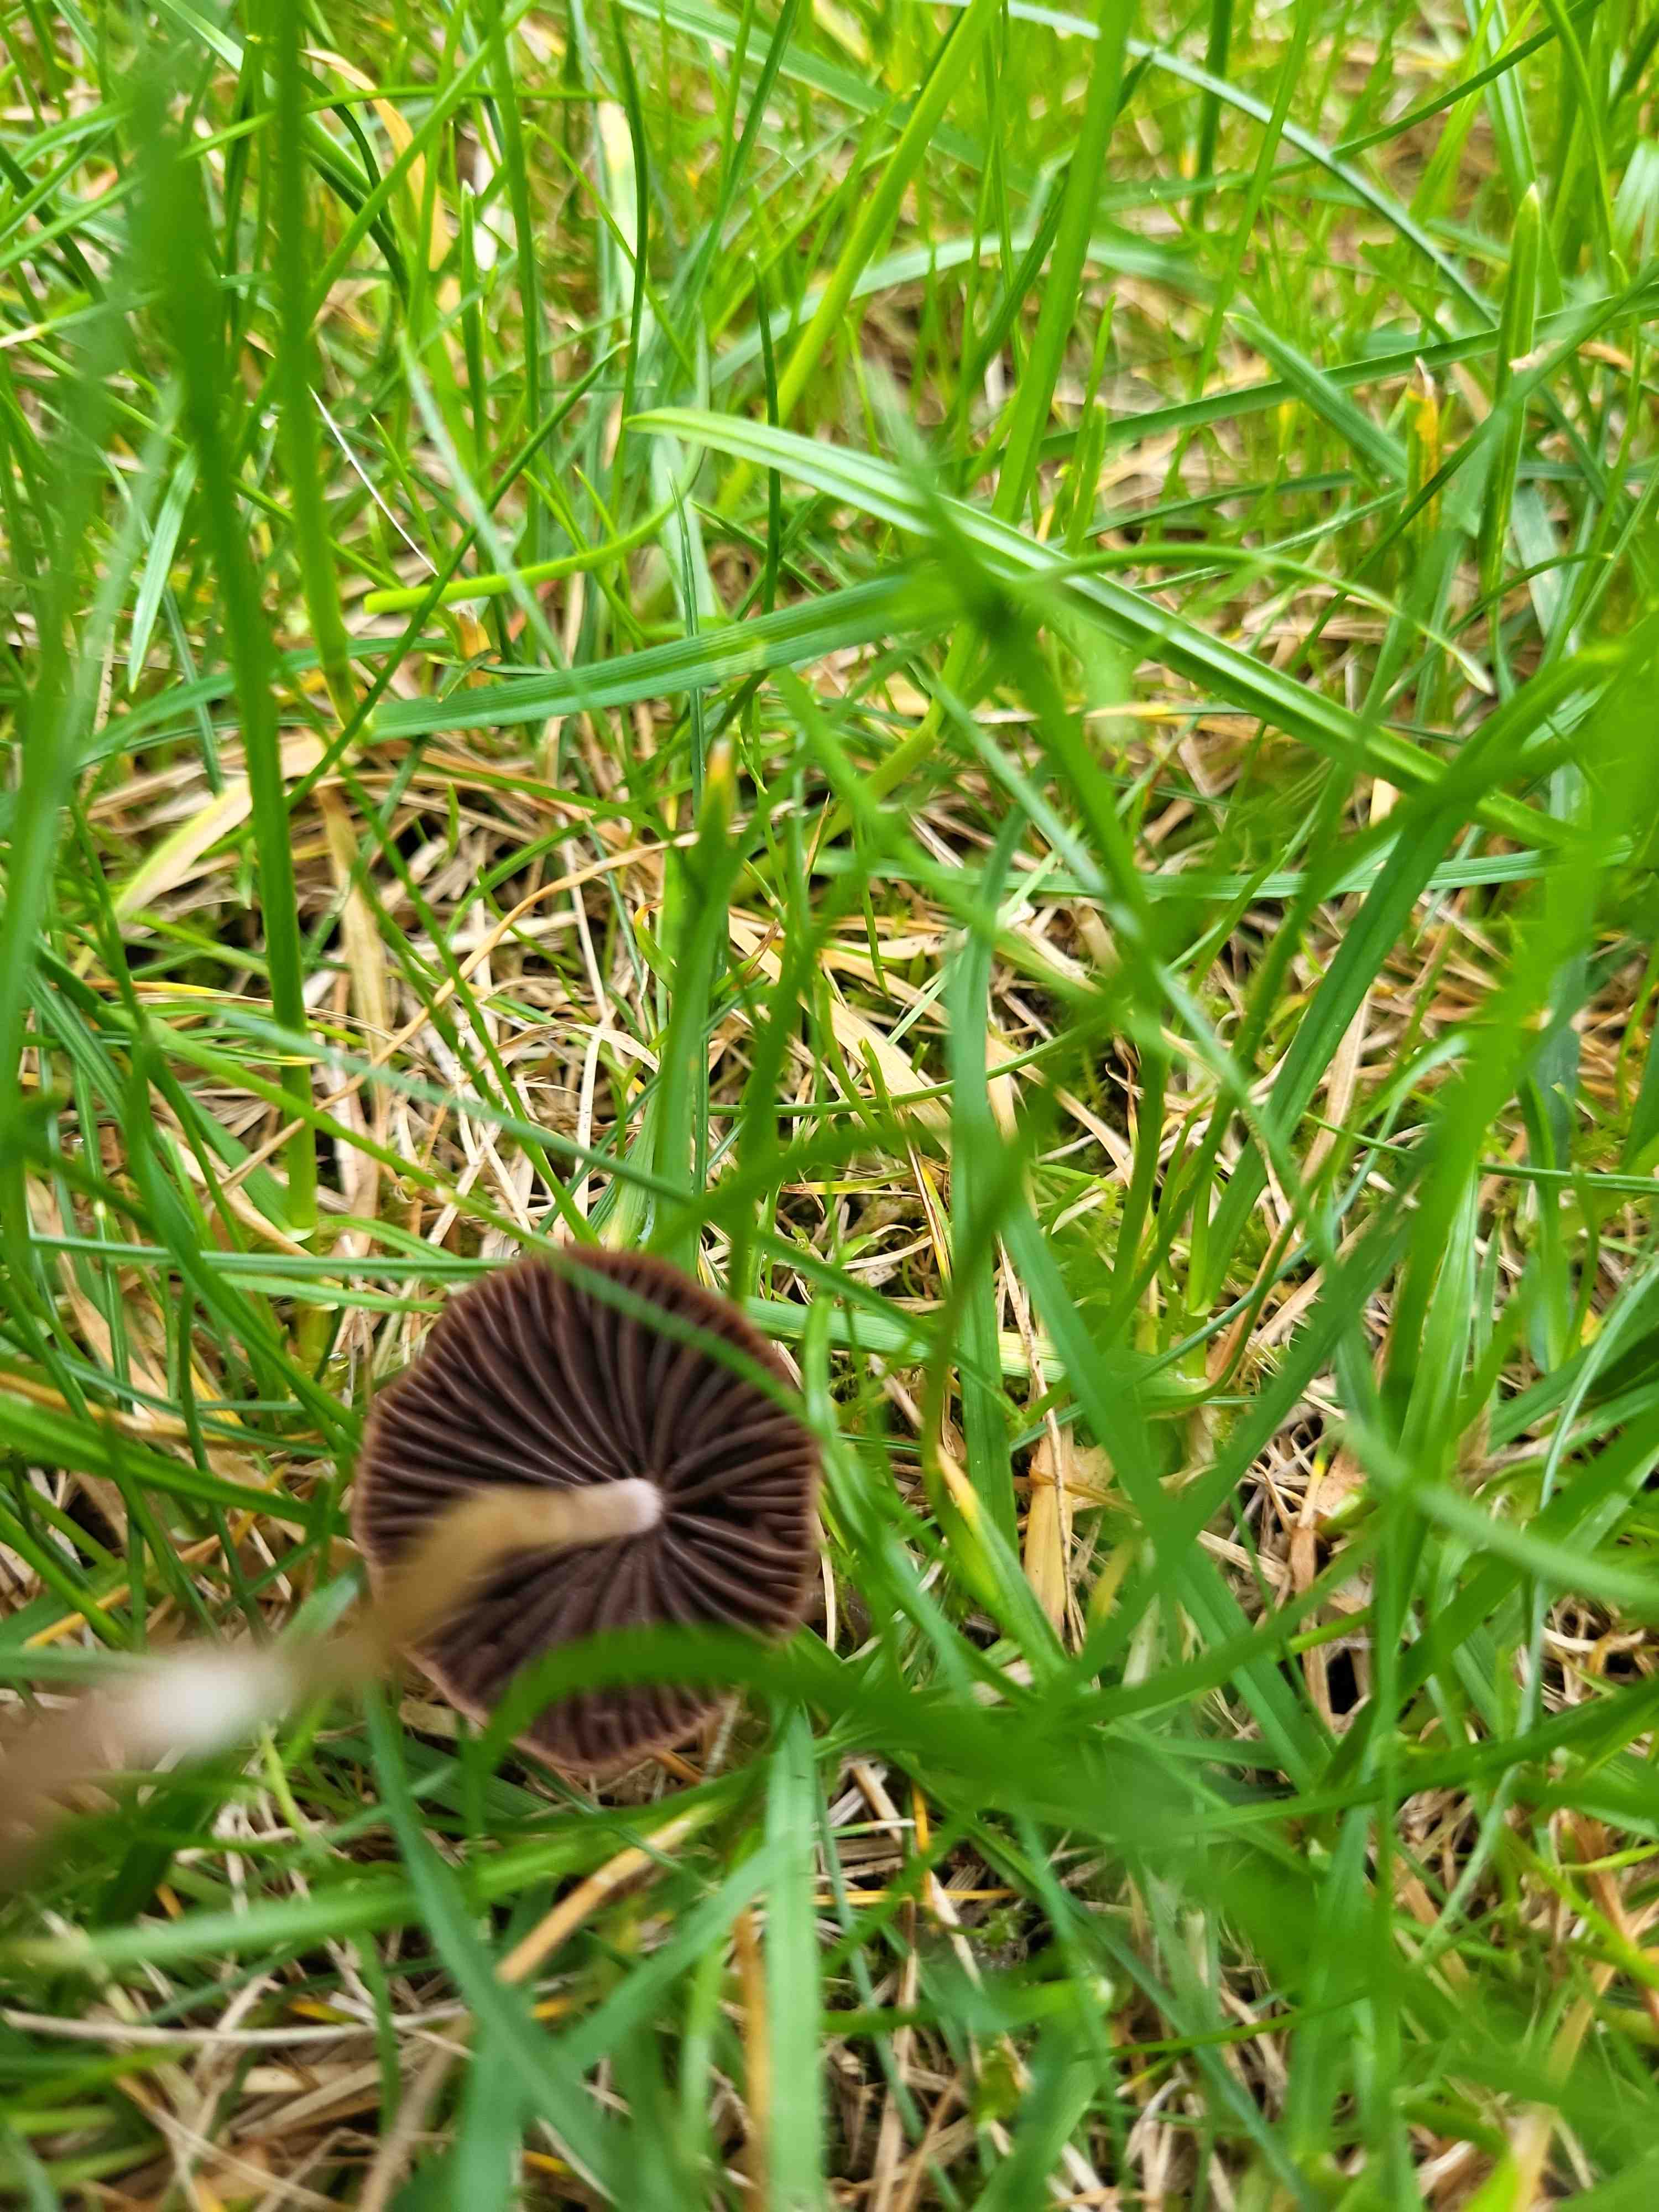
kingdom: Fungi
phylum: Basidiomycota
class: Agaricomycetes
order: Agaricales
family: Bolbitiaceae
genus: Panaeolina
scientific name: Panaeolina foenisecii
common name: høslætsvamp
